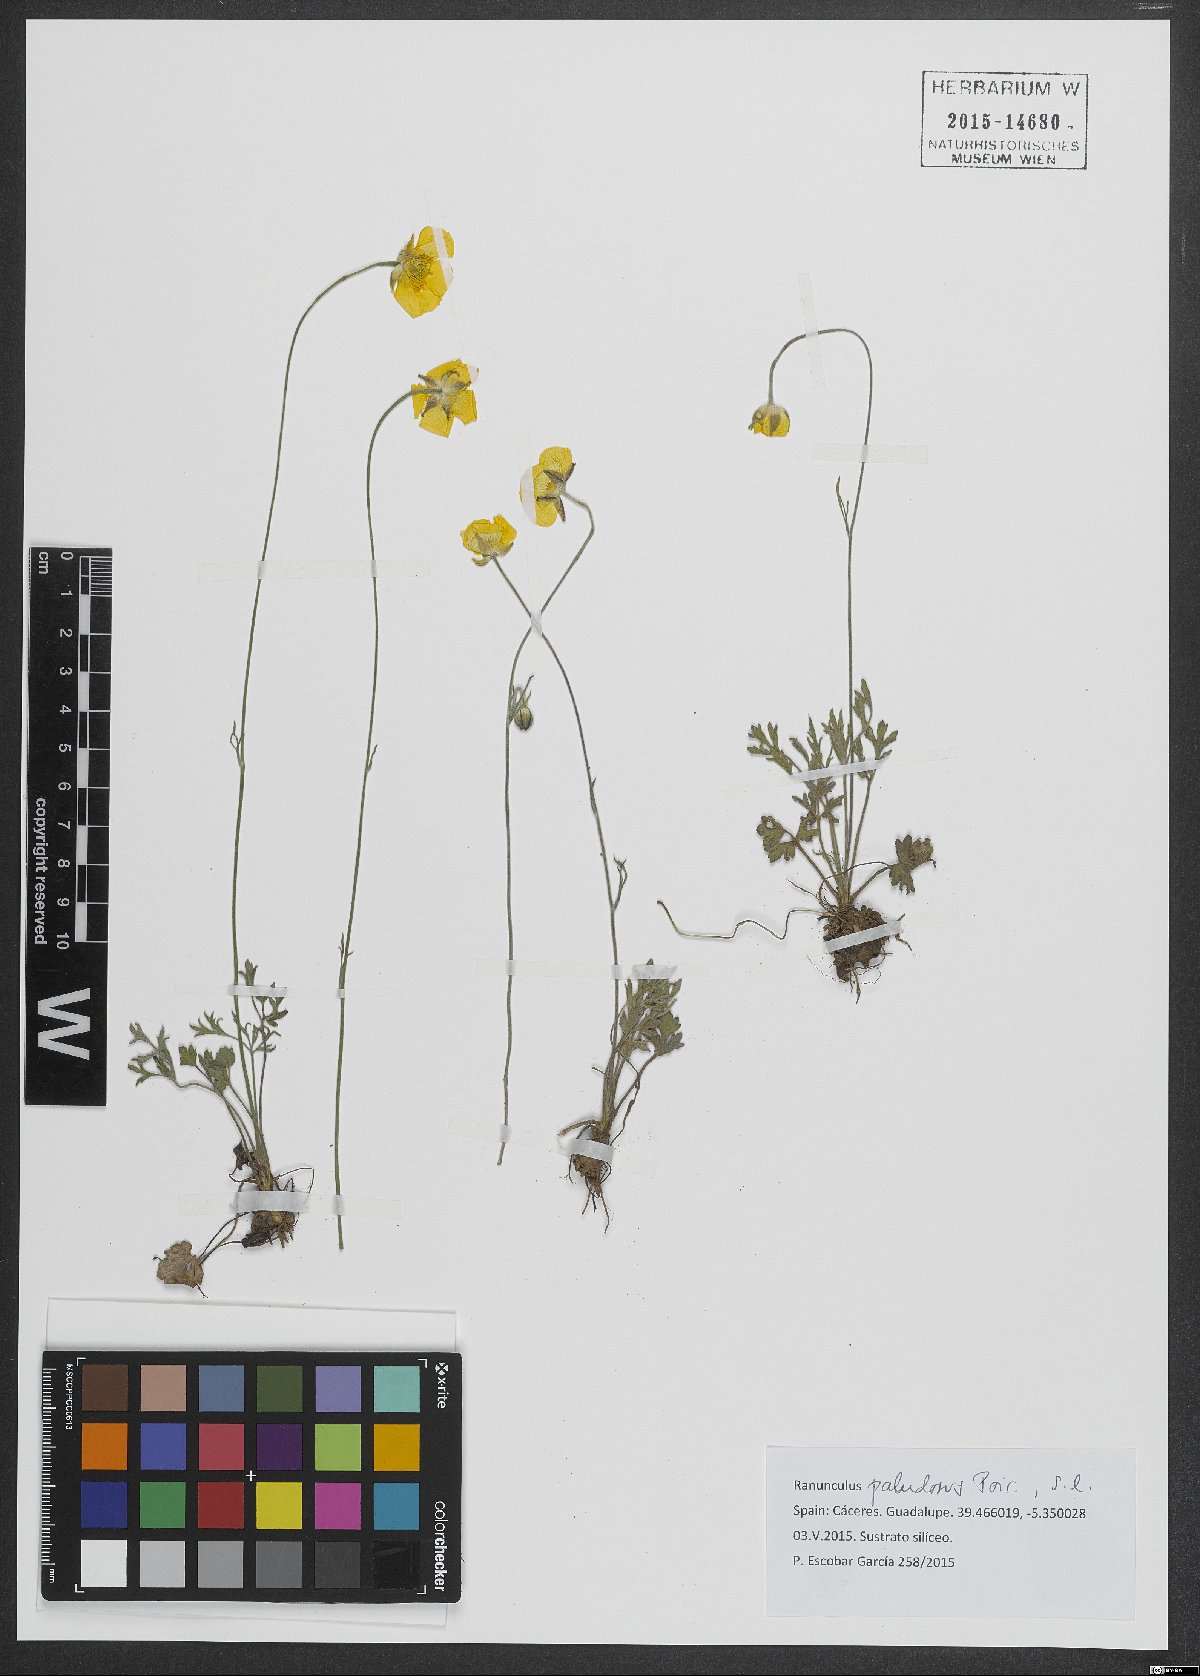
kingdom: Plantae
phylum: Tracheophyta
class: Magnoliopsida
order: Ranunculales
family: Ranunculaceae
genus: Ranunculus
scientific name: Ranunculus paludosus
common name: Jersey buttercup
